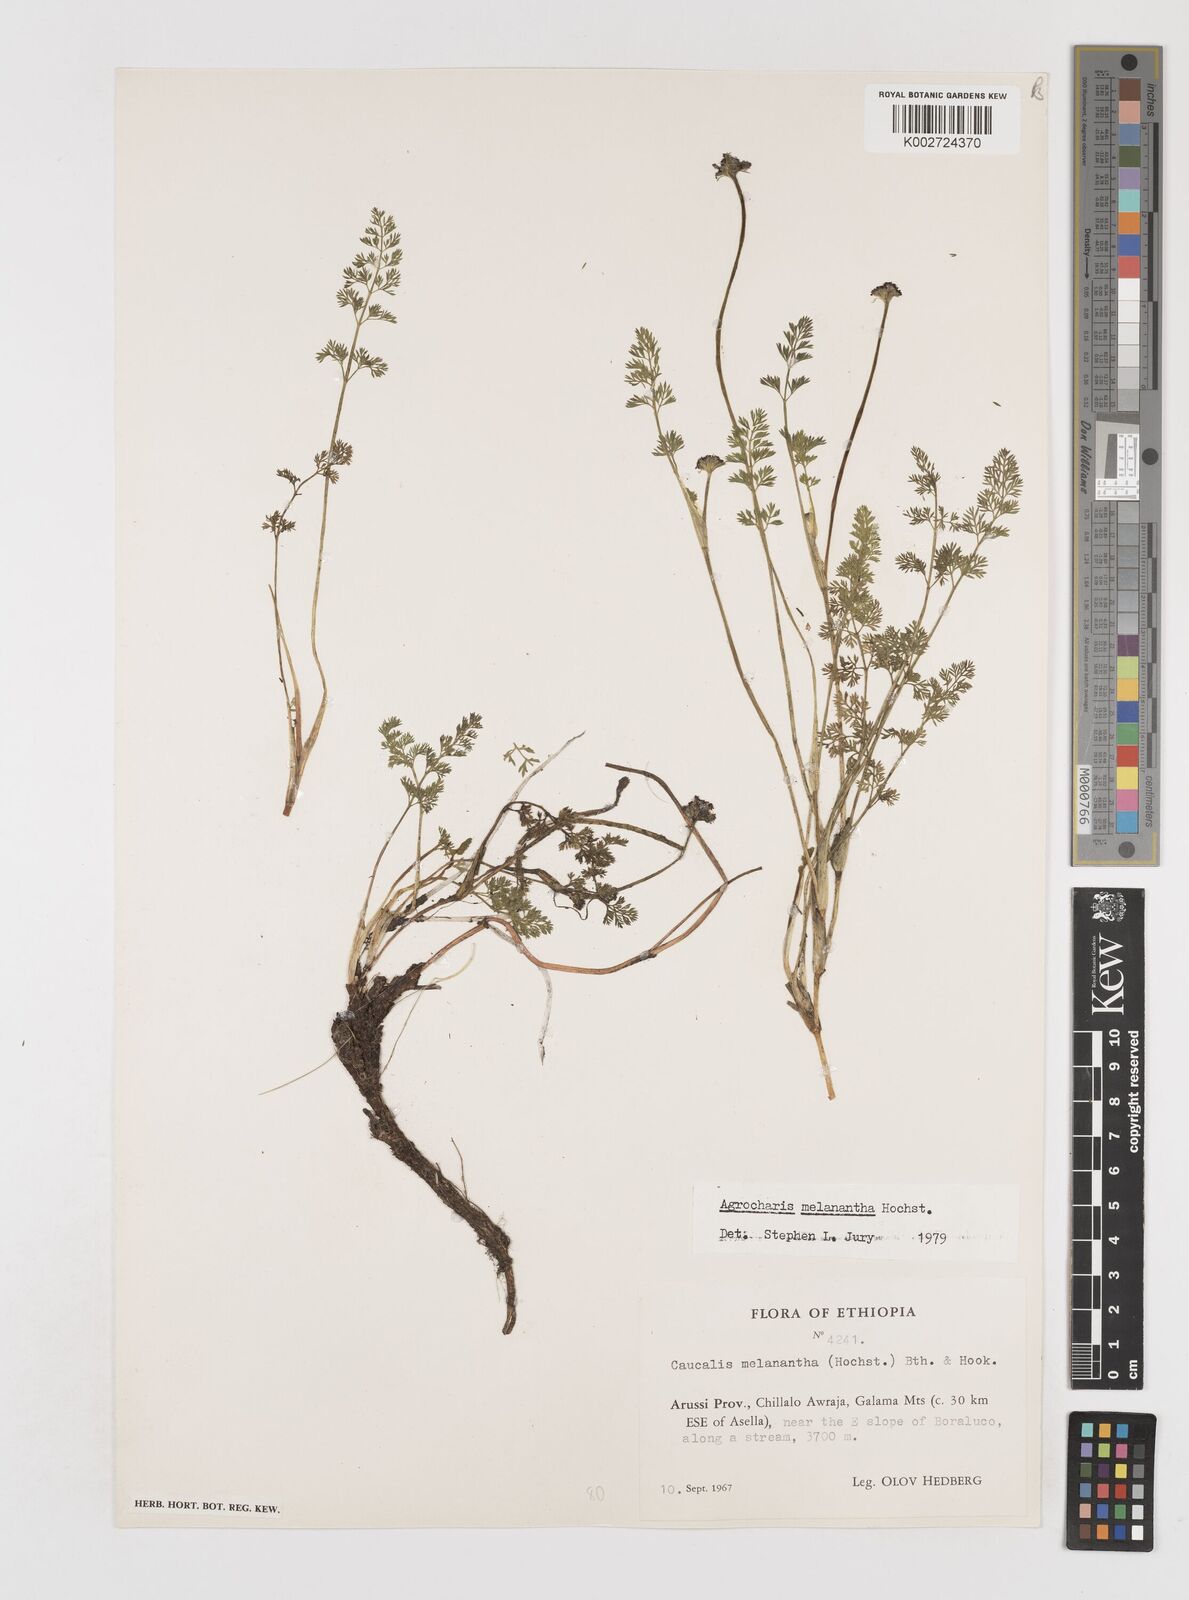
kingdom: Plantae
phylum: Tracheophyta
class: Magnoliopsida
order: Apiales
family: Apiaceae
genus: Daucus
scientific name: Daucus melananthus
